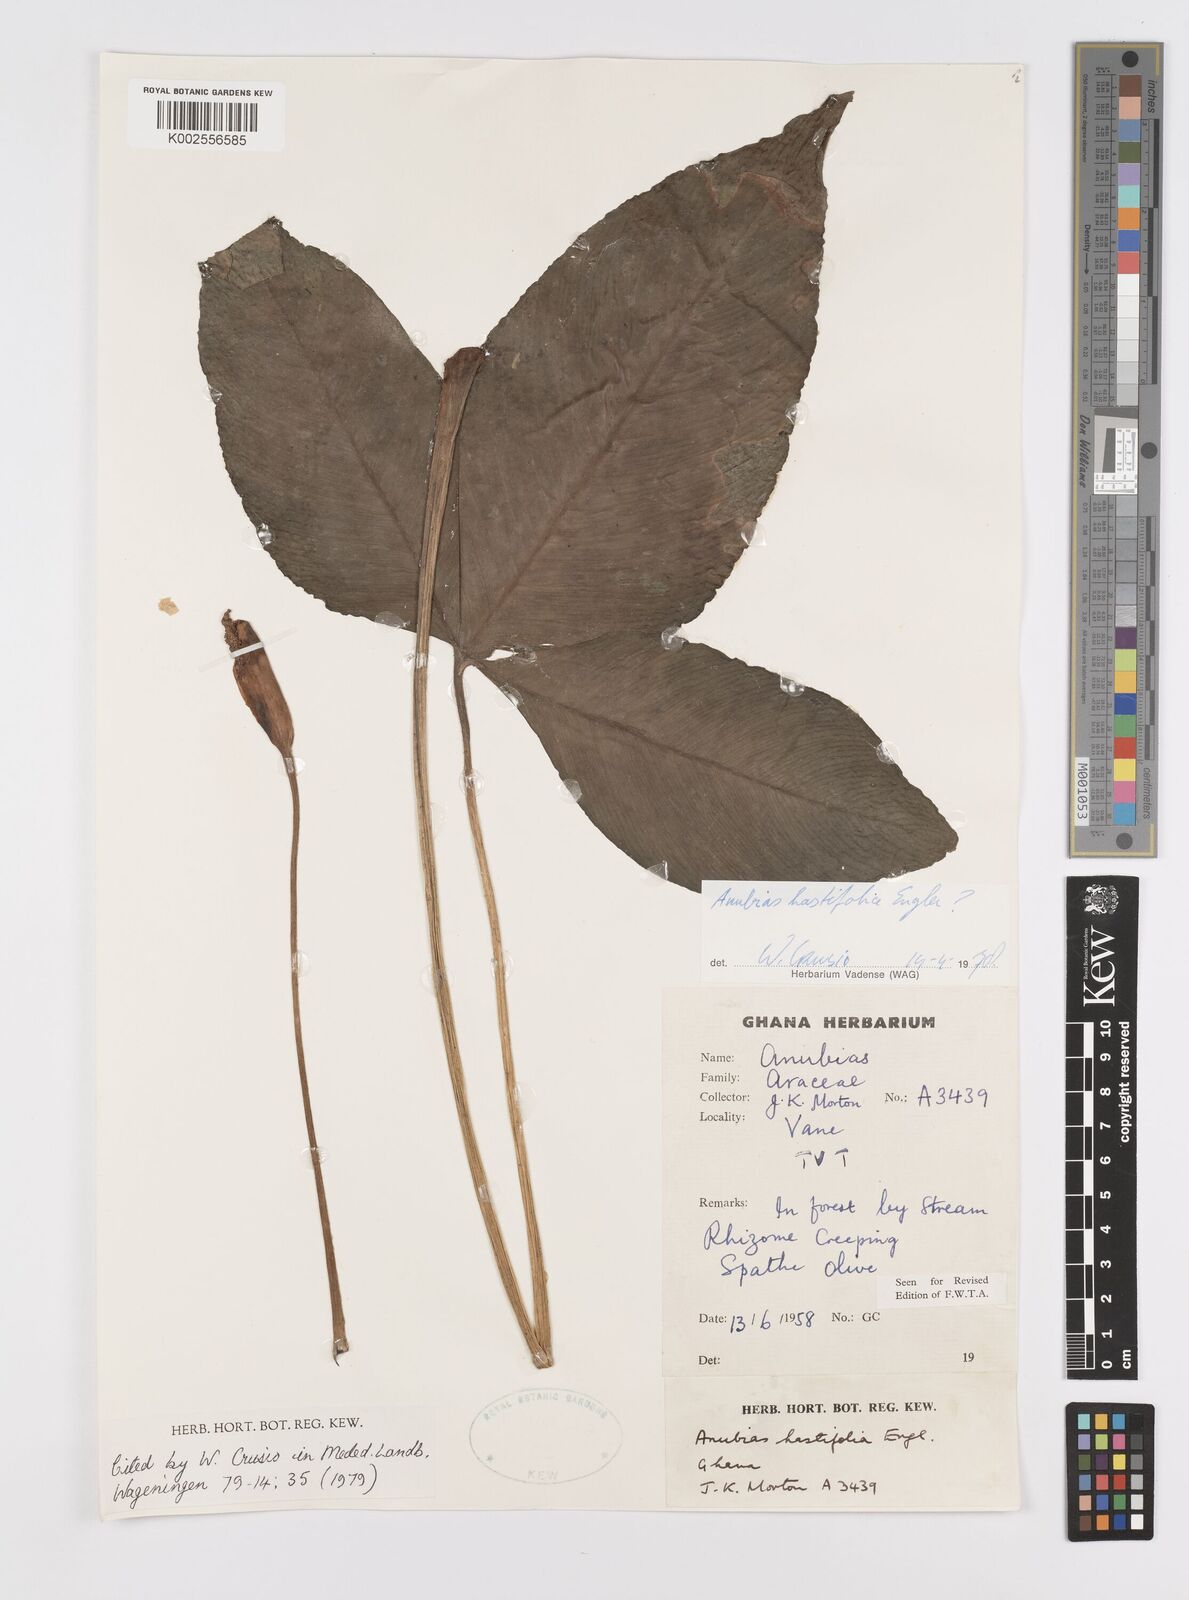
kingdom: Plantae
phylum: Tracheophyta
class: Liliopsida
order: Alismatales
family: Araceae
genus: Anubias
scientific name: Anubias hastifolia
